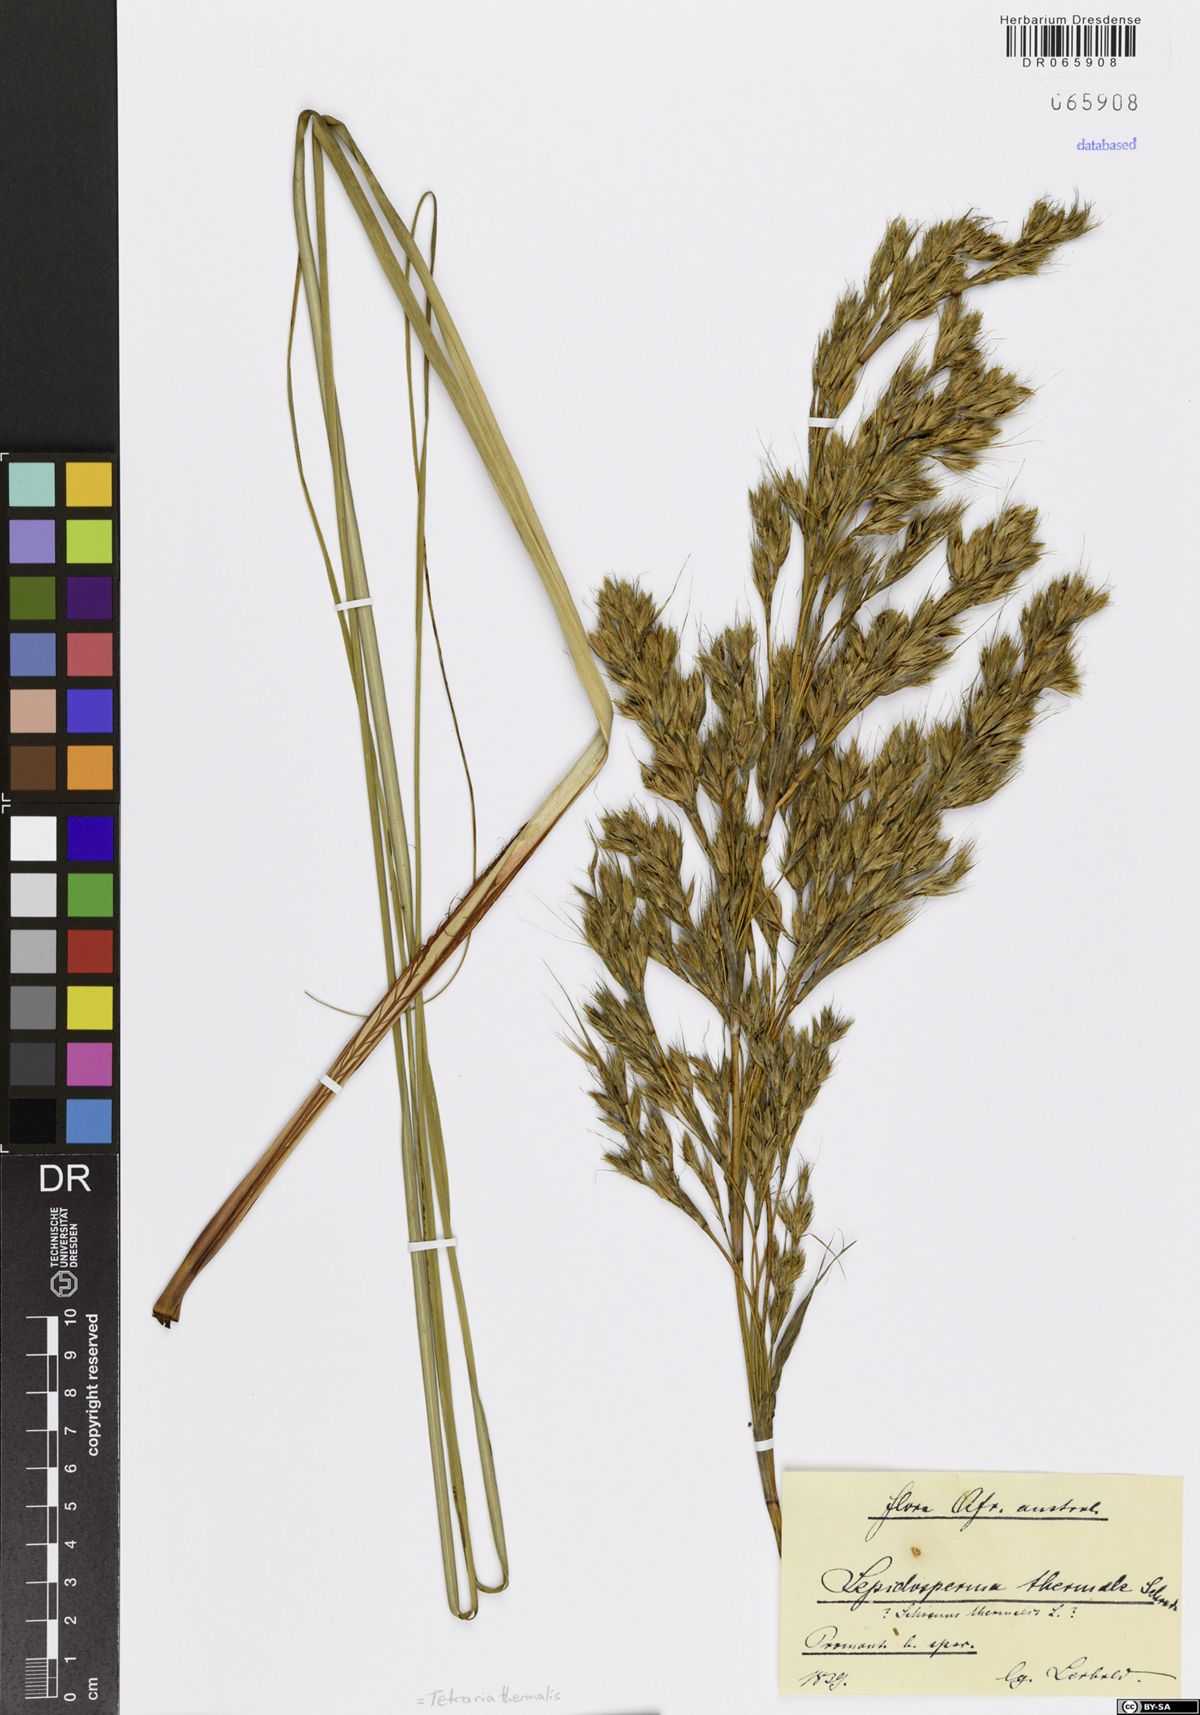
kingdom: Plantae
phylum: Tracheophyta
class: Liliopsida
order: Poales
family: Cyperaceae
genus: Tetraria
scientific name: Tetraria thermalis
